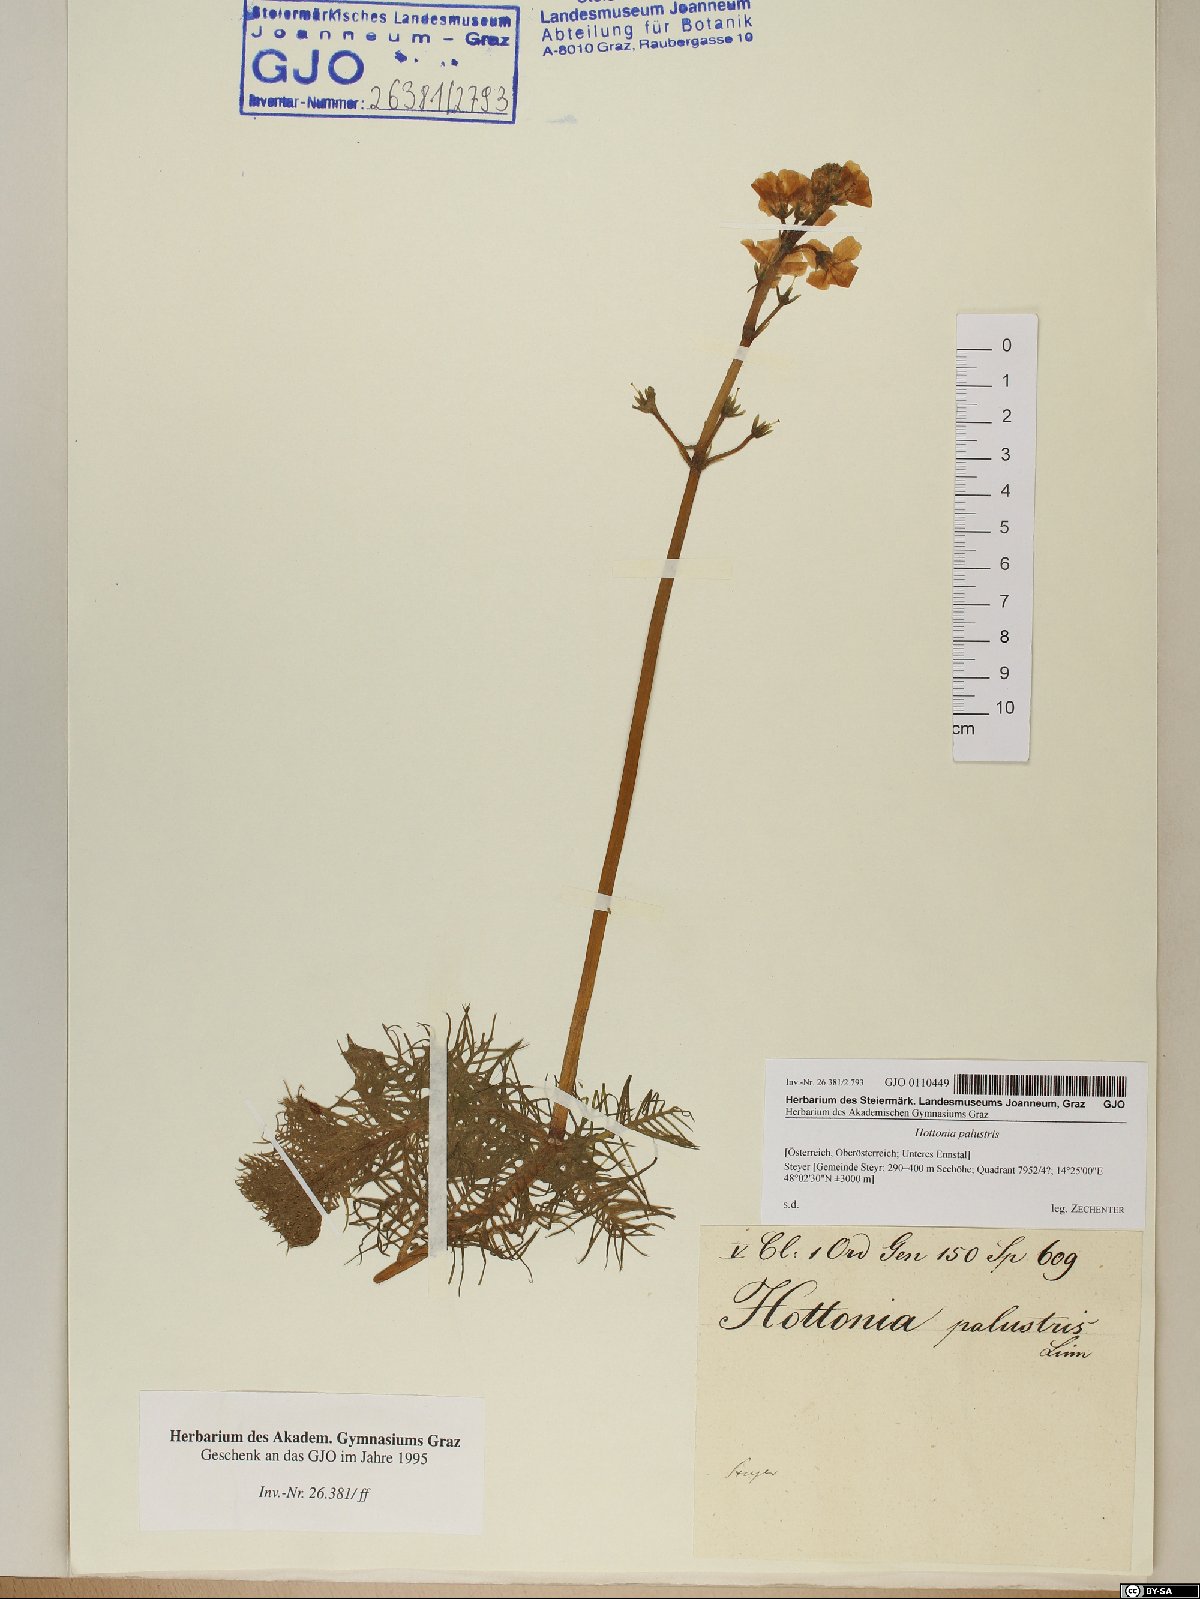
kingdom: Plantae
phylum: Tracheophyta
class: Magnoliopsida
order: Ericales
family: Primulaceae
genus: Hottonia
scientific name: Hottonia palustris
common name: Water-violet
